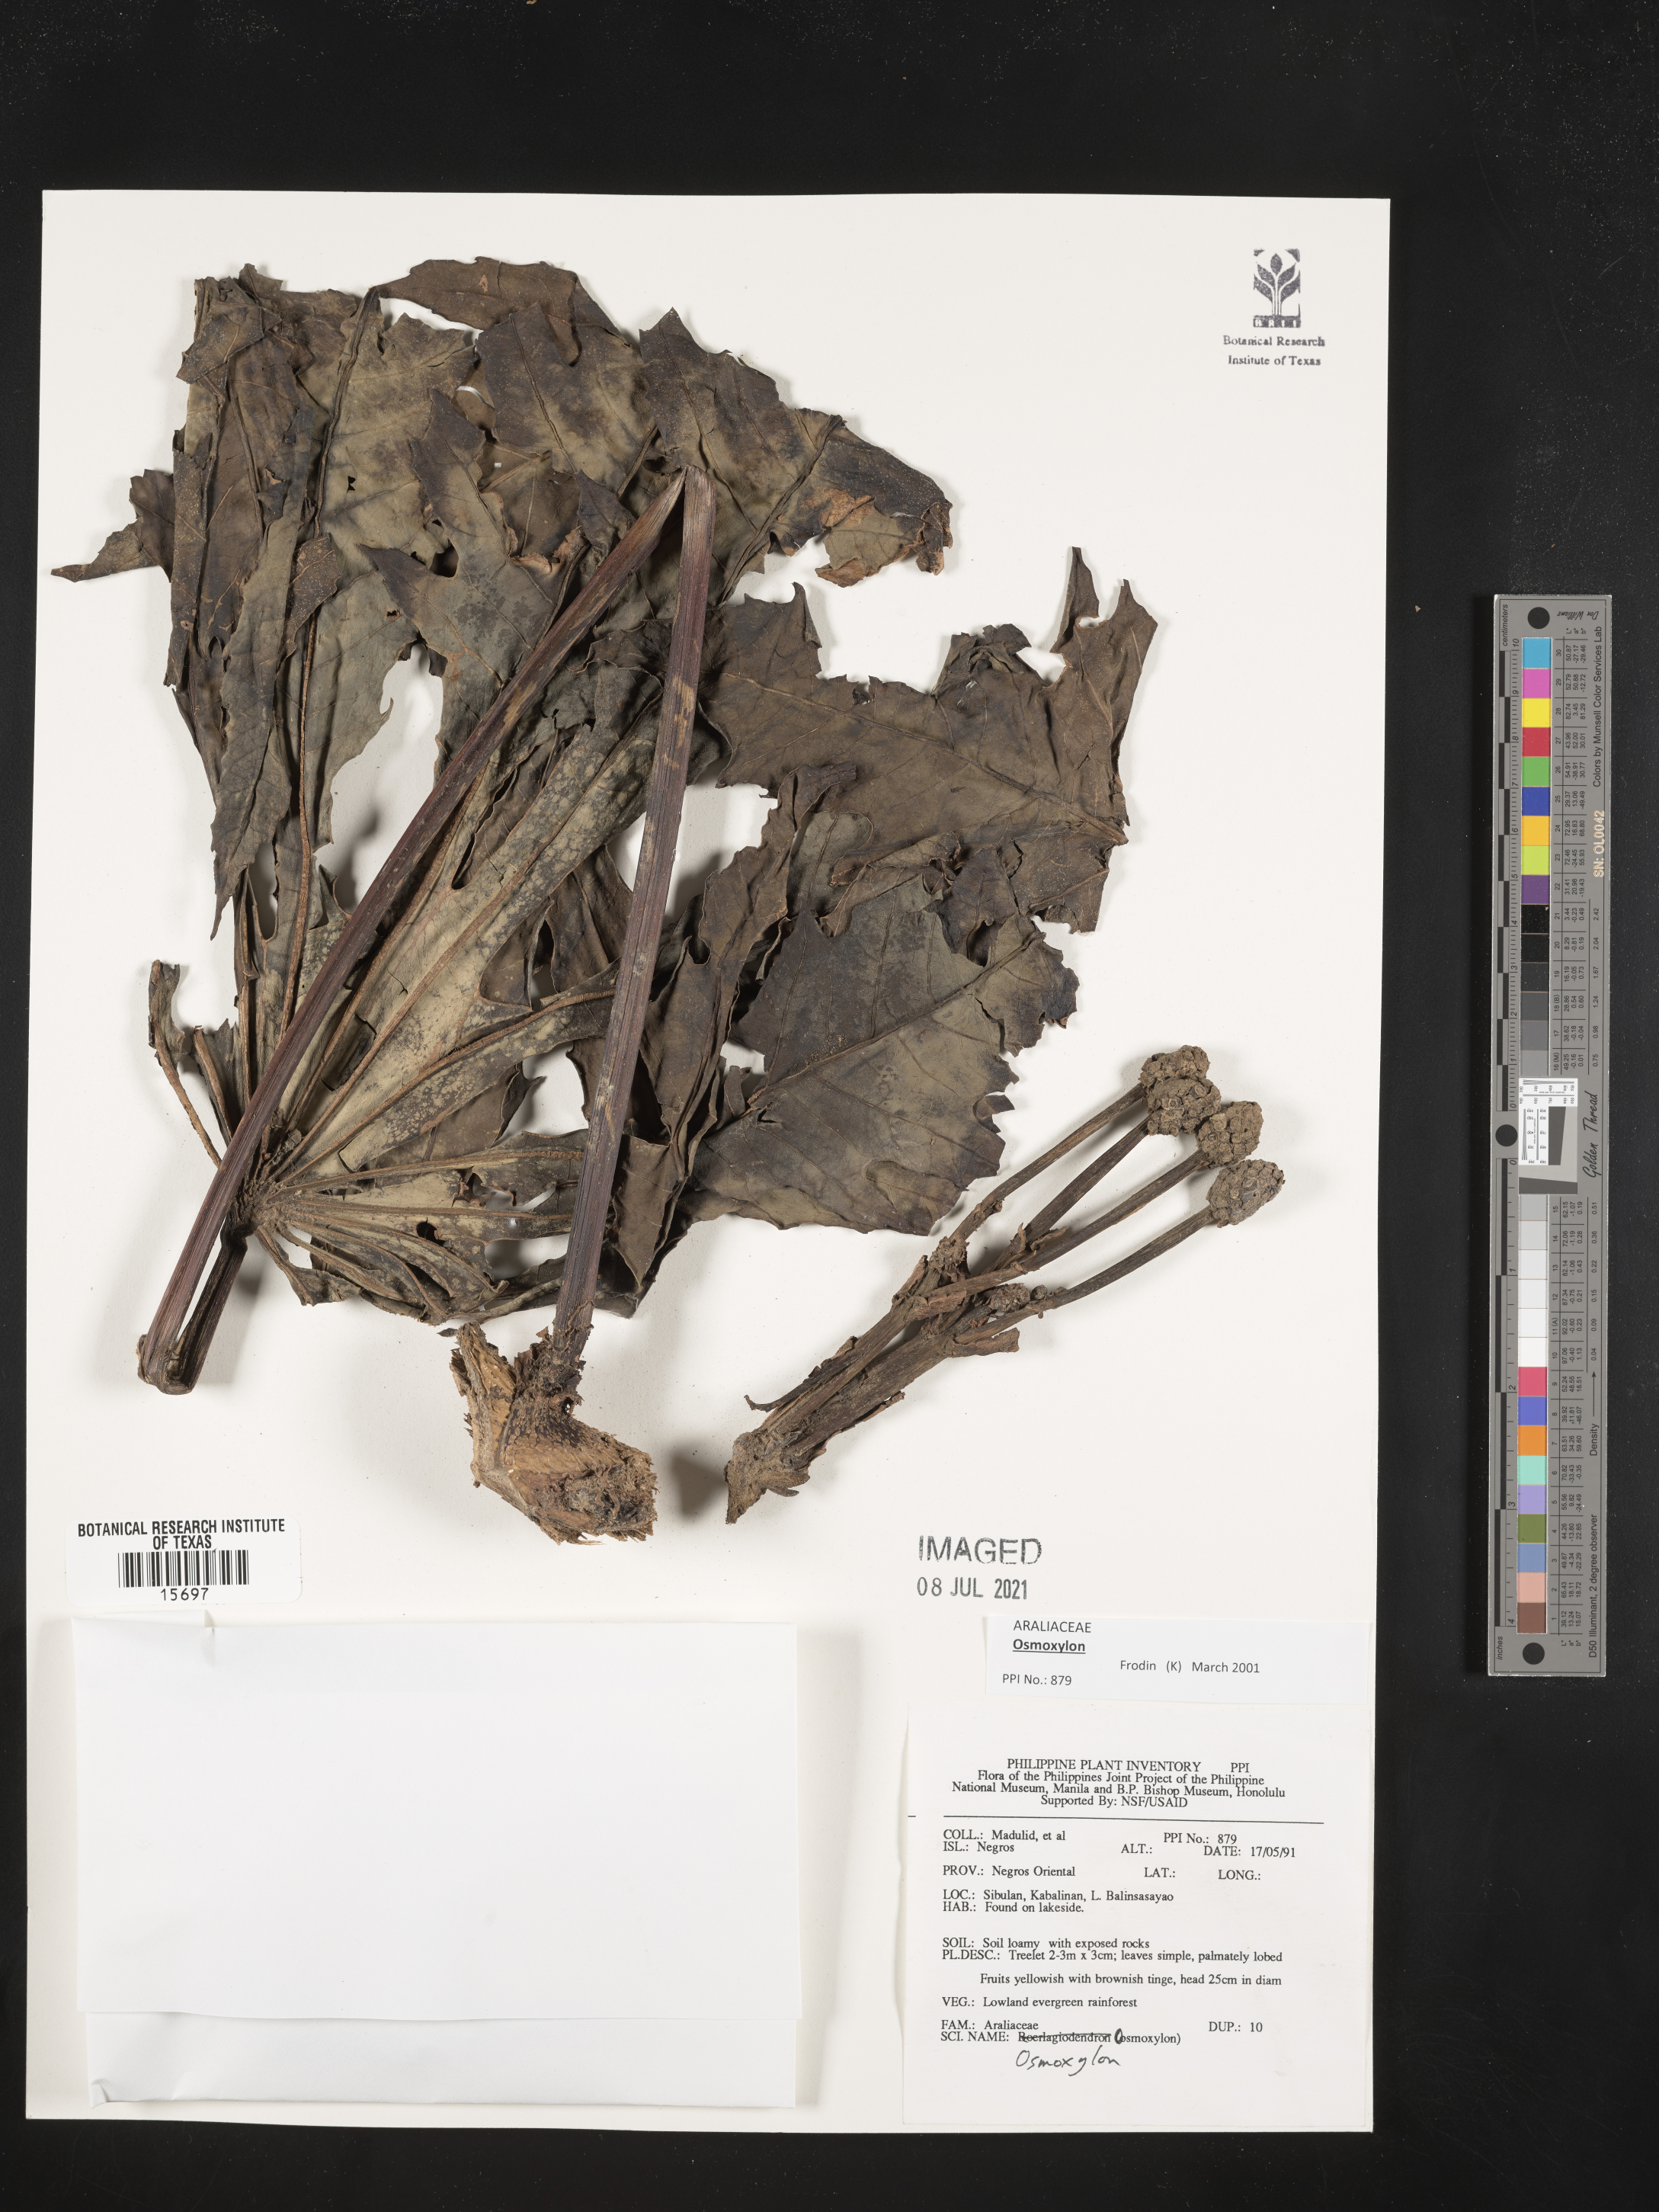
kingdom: Plantae
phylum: Tracheophyta
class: Magnoliopsida
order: Apiales
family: Araliaceae
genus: Osmoxylon
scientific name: Osmoxylon
